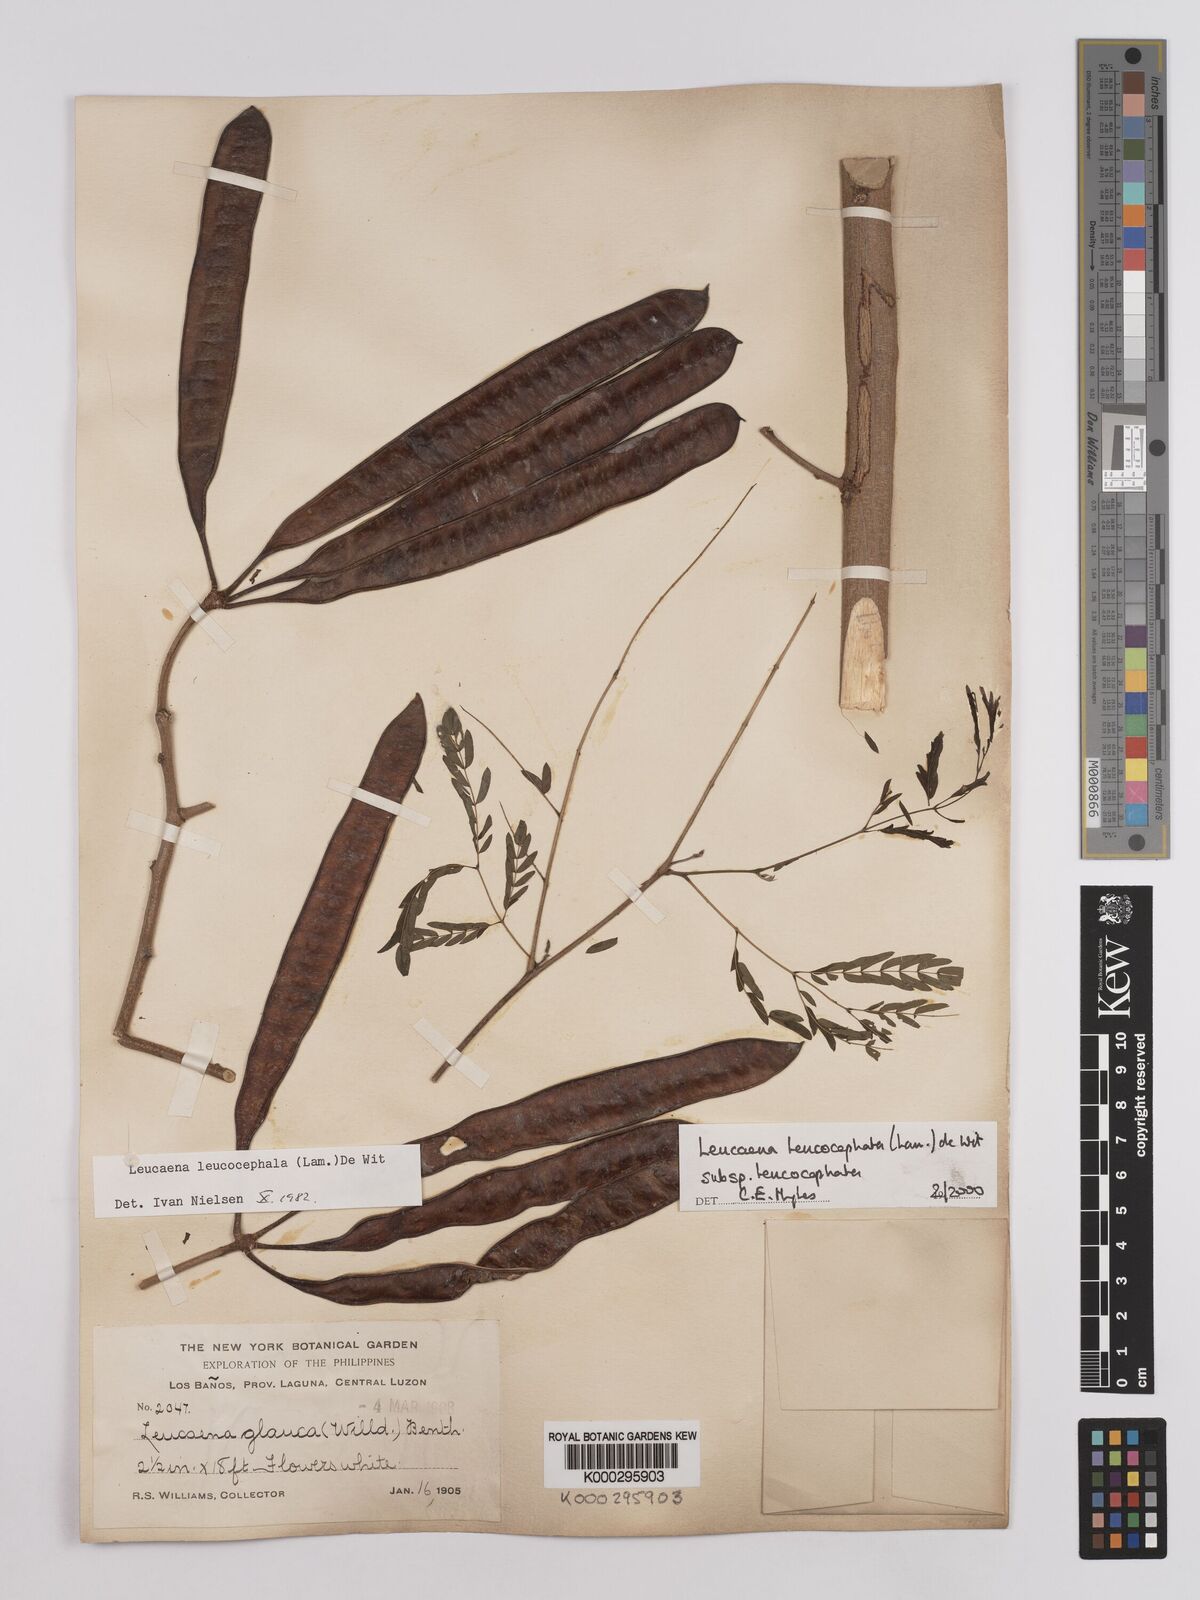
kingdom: Plantae
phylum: Tracheophyta
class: Magnoliopsida
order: Fabales
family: Fabaceae
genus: Leucaena
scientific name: Leucaena leucocephala
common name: White leadtree
